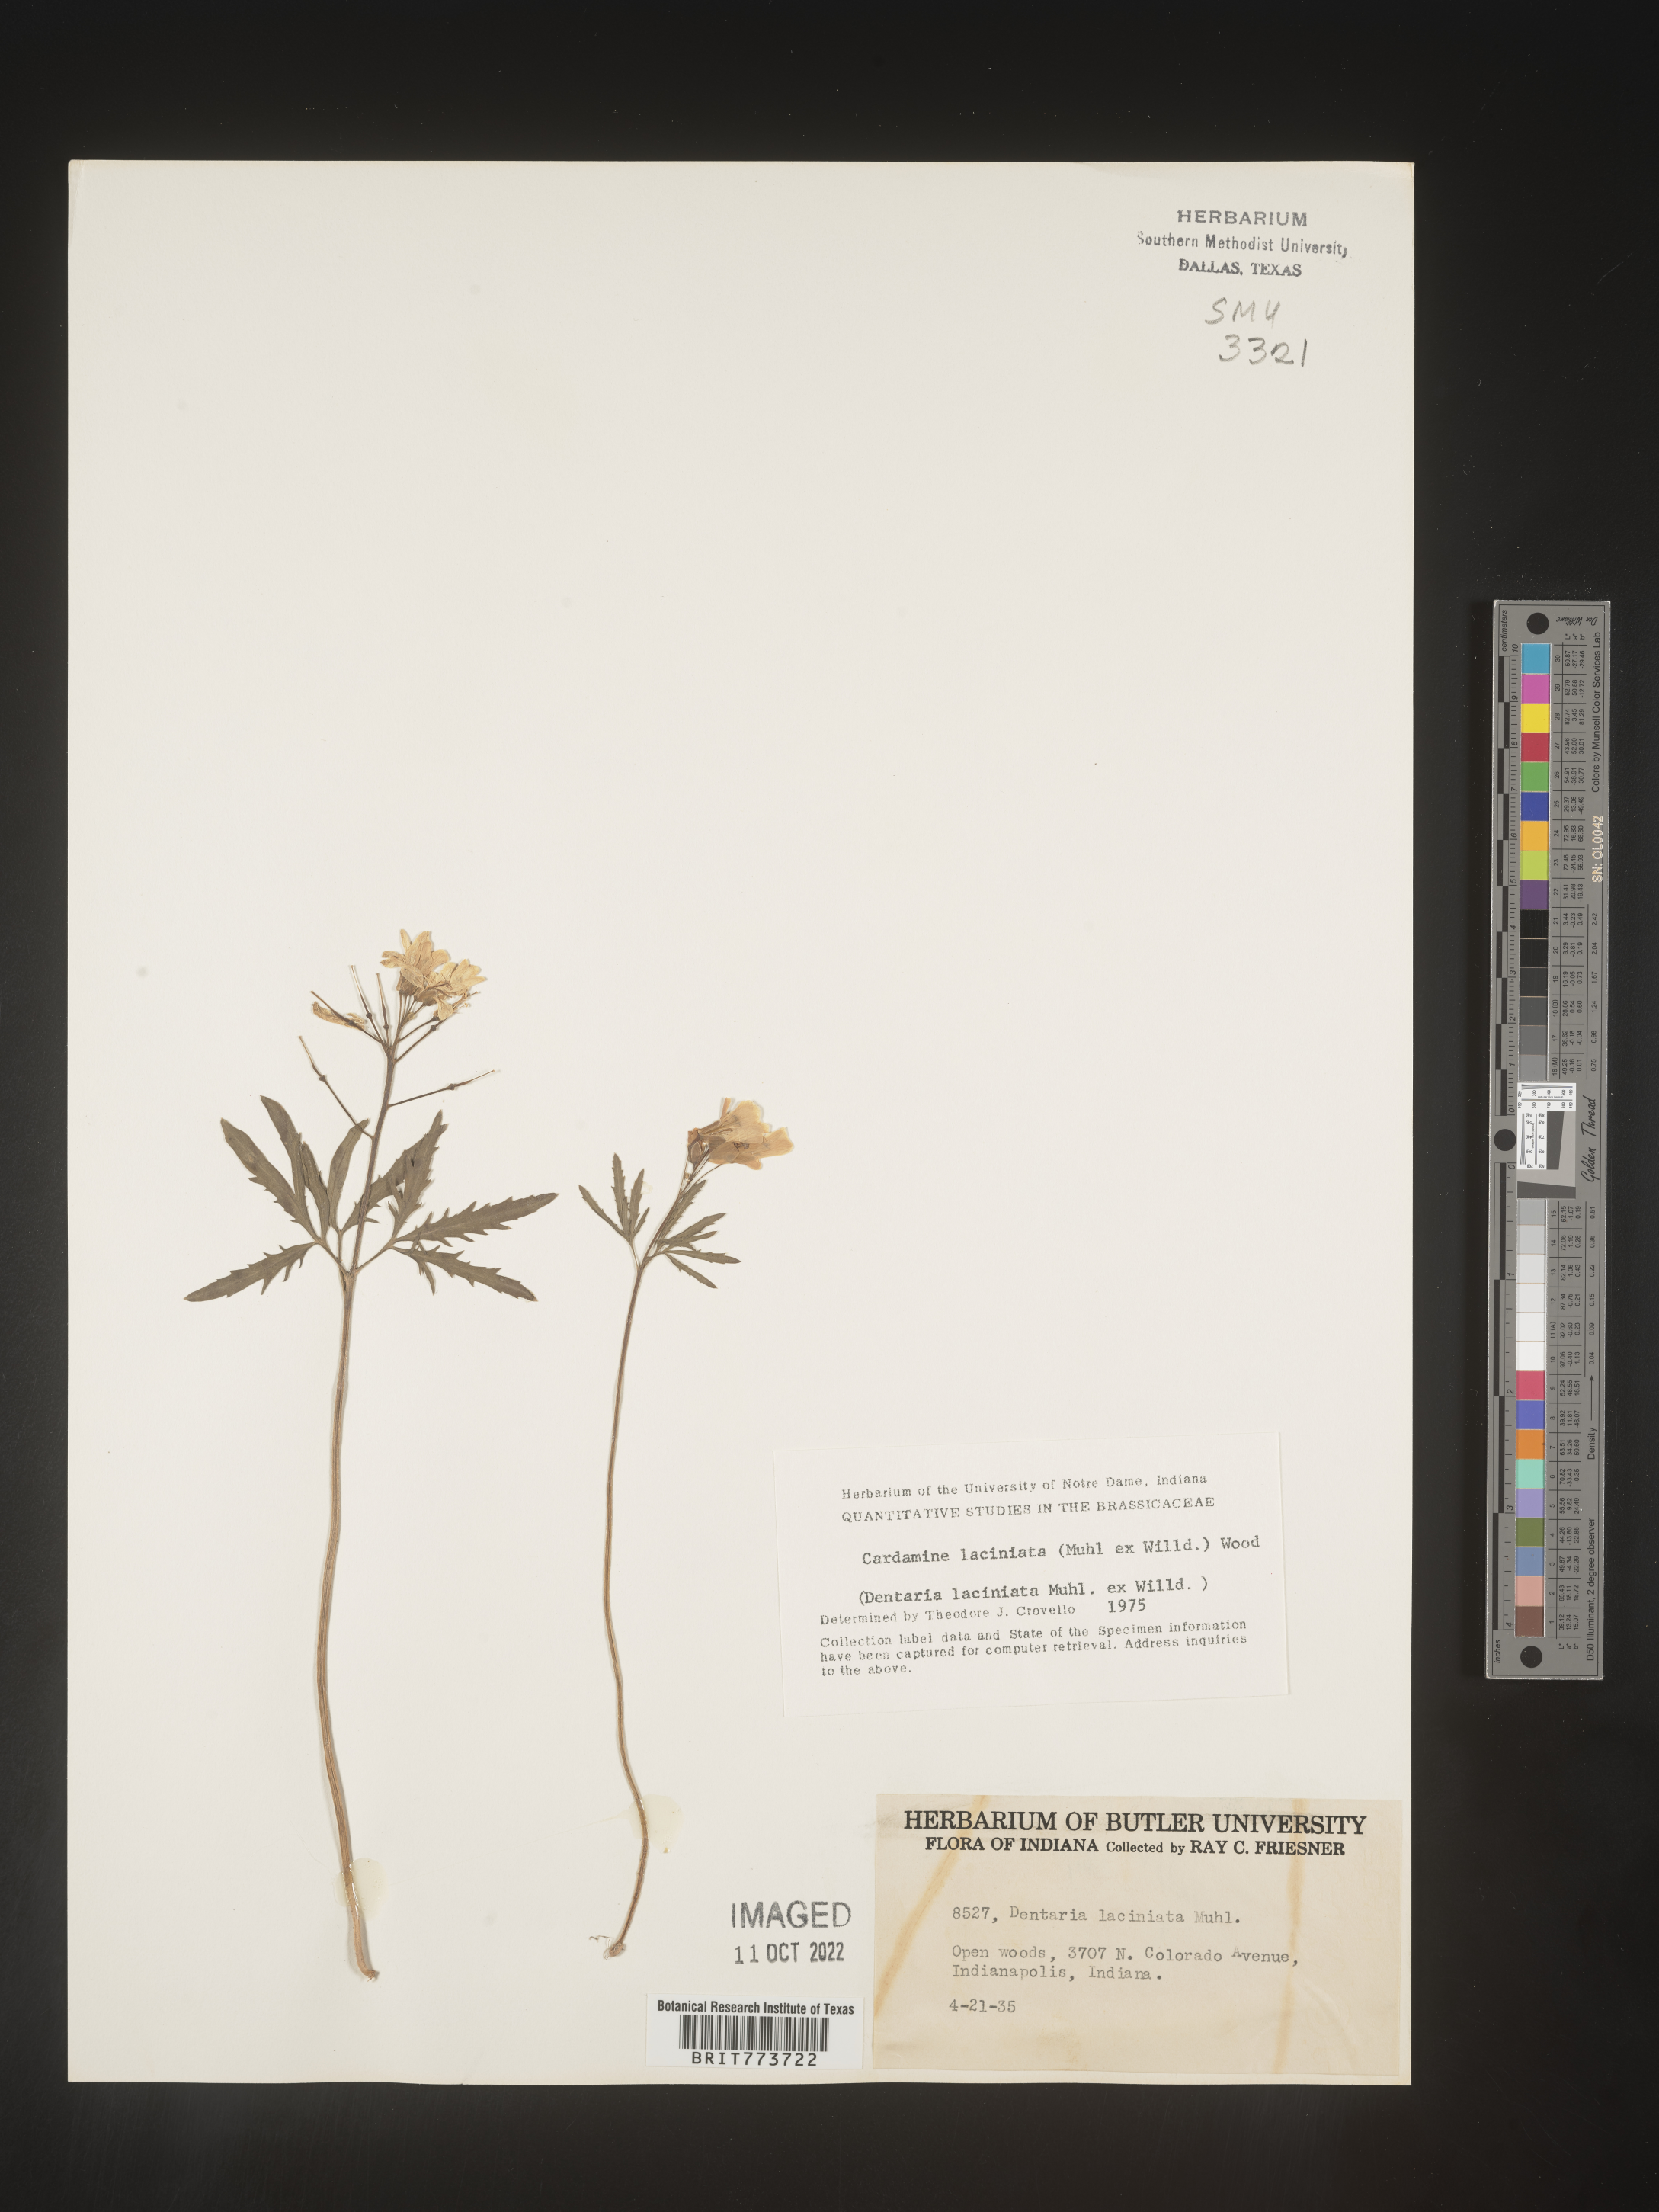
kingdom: Plantae
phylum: Tracheophyta
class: Magnoliopsida
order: Brassicales
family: Brassicaceae
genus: Rorippa
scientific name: Rorippa laciniata
